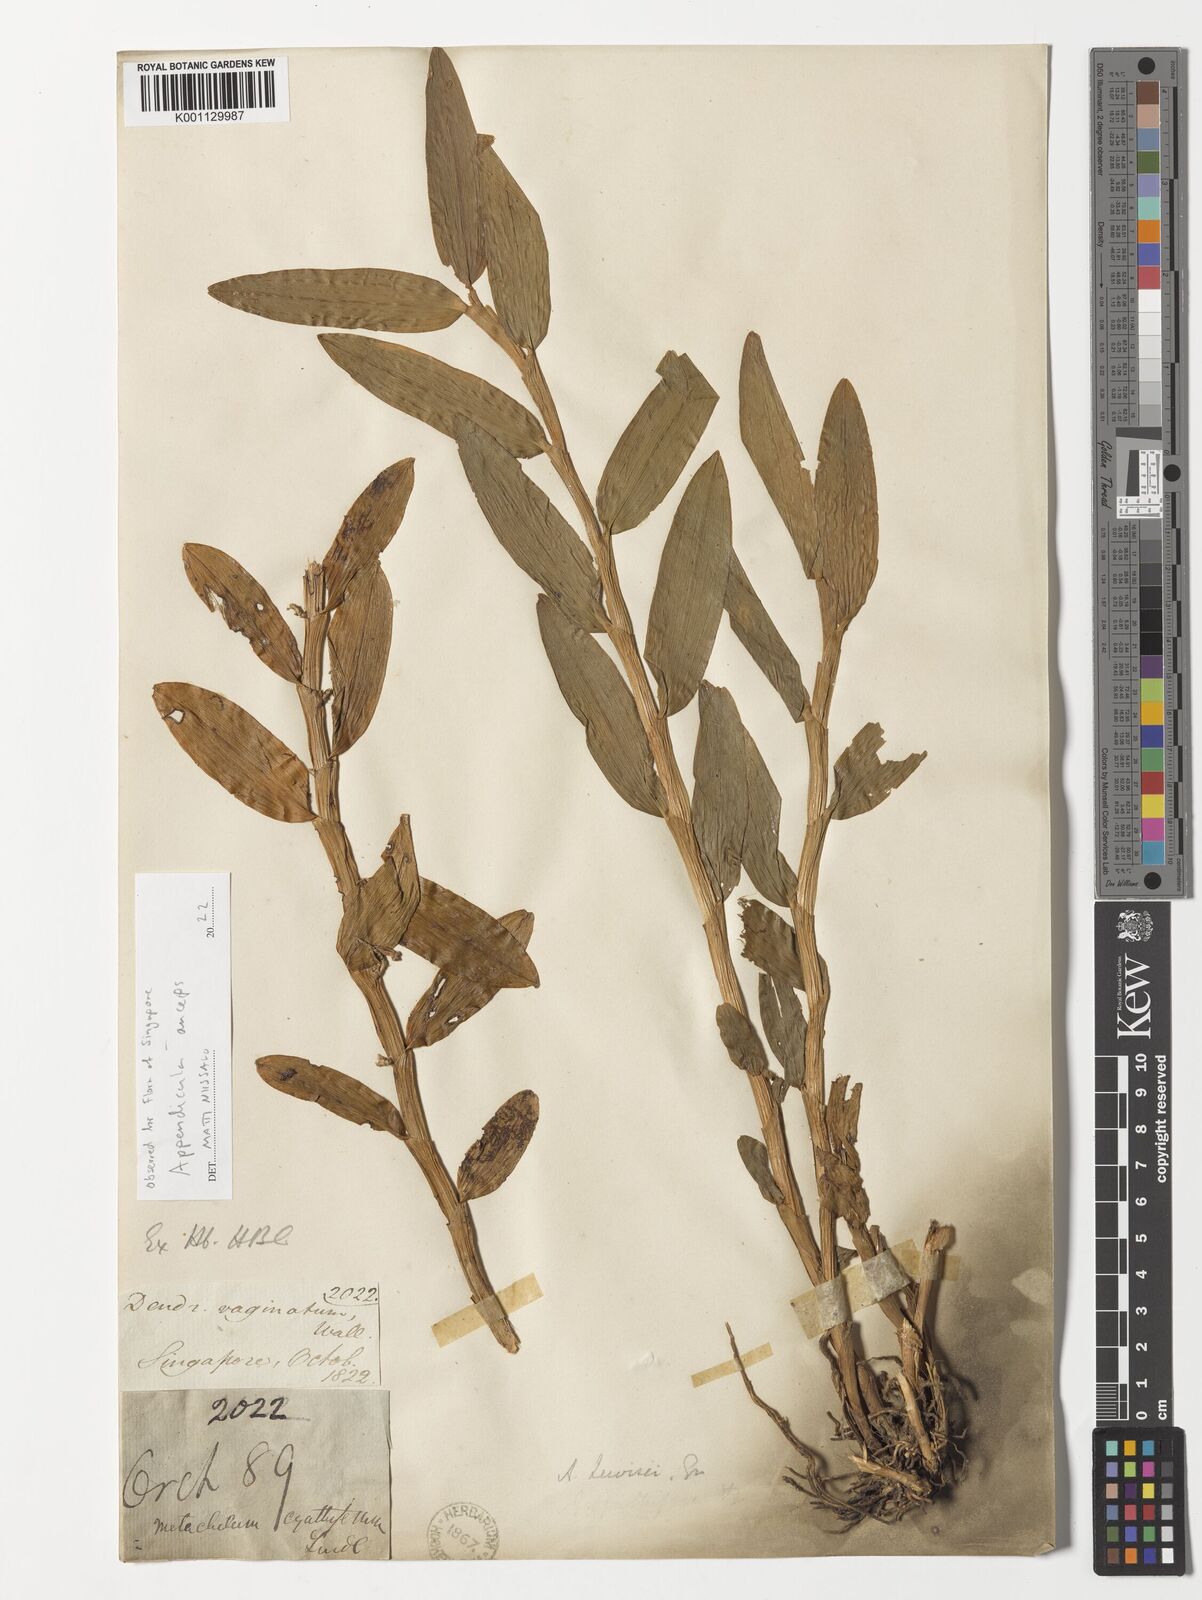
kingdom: Plantae
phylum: Tracheophyta
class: Liliopsida
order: Asparagales
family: Orchidaceae
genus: Appendicula
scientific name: Appendicula anceps
